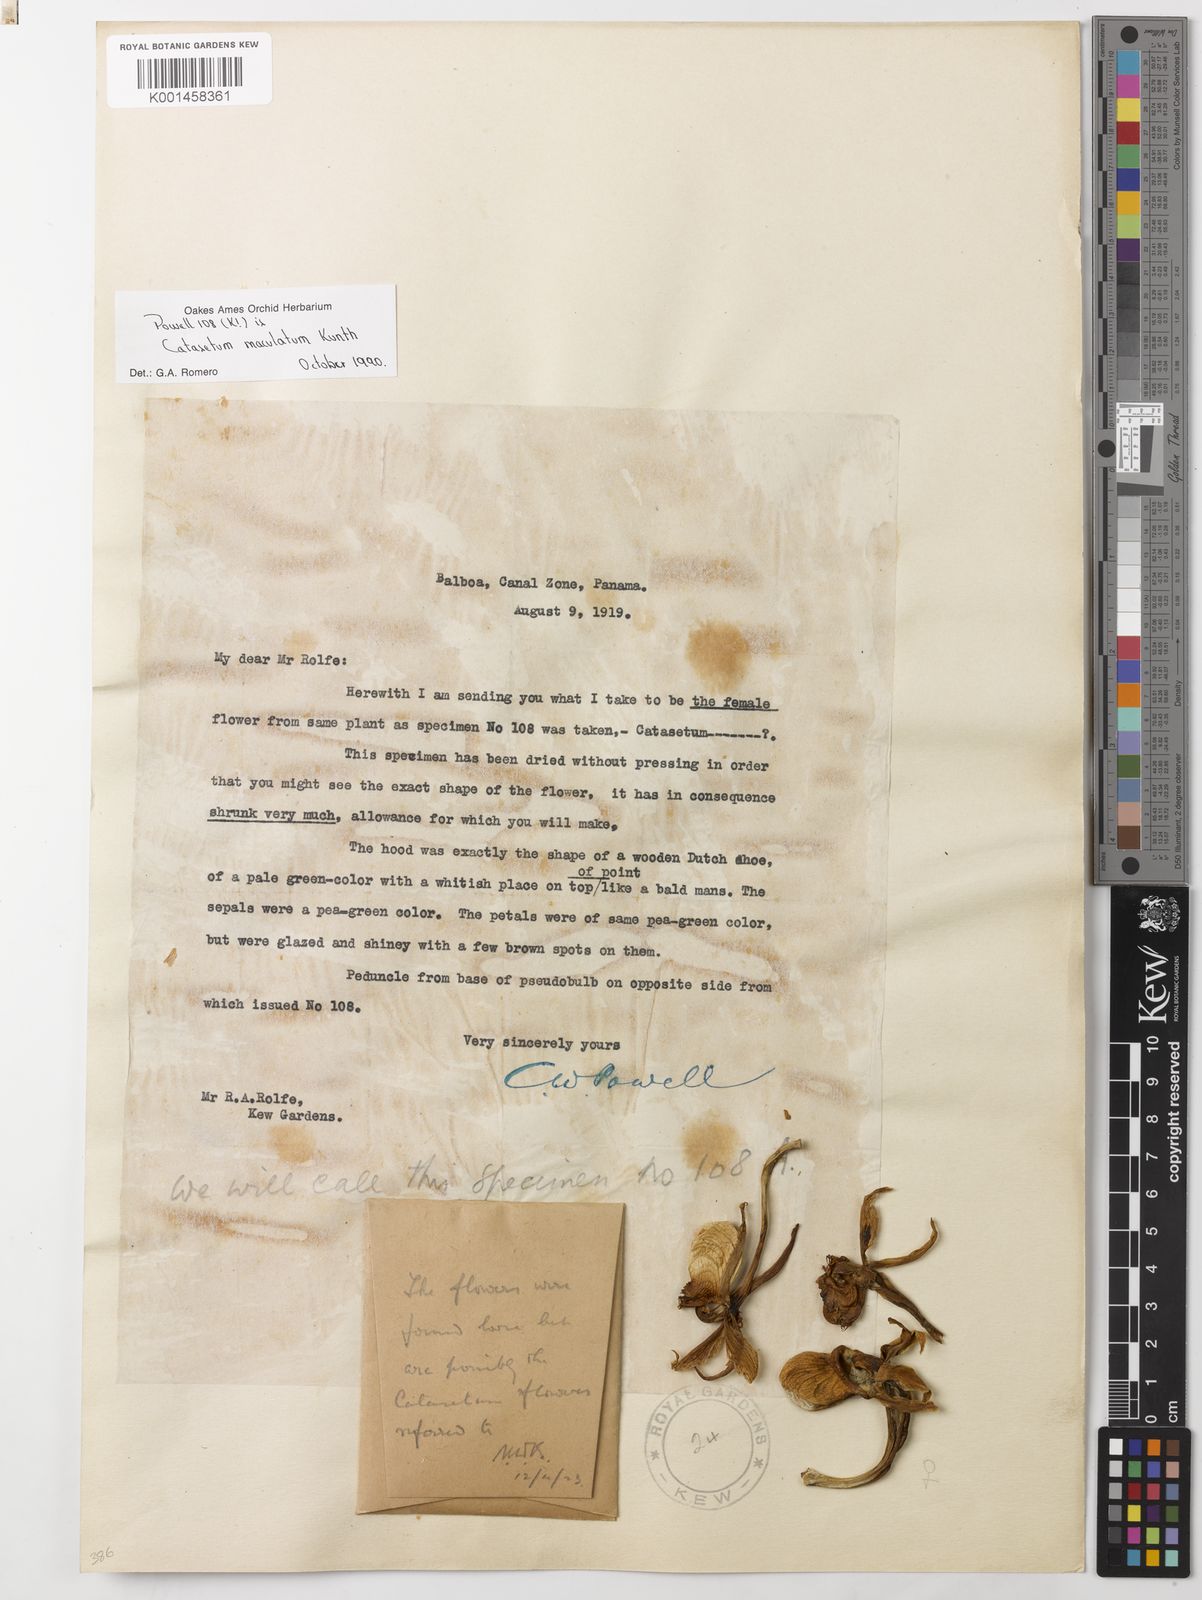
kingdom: Plantae
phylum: Tracheophyta
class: Liliopsida
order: Asparagales
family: Orchidaceae
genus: Catasetum
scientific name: Catasetum maculatum
